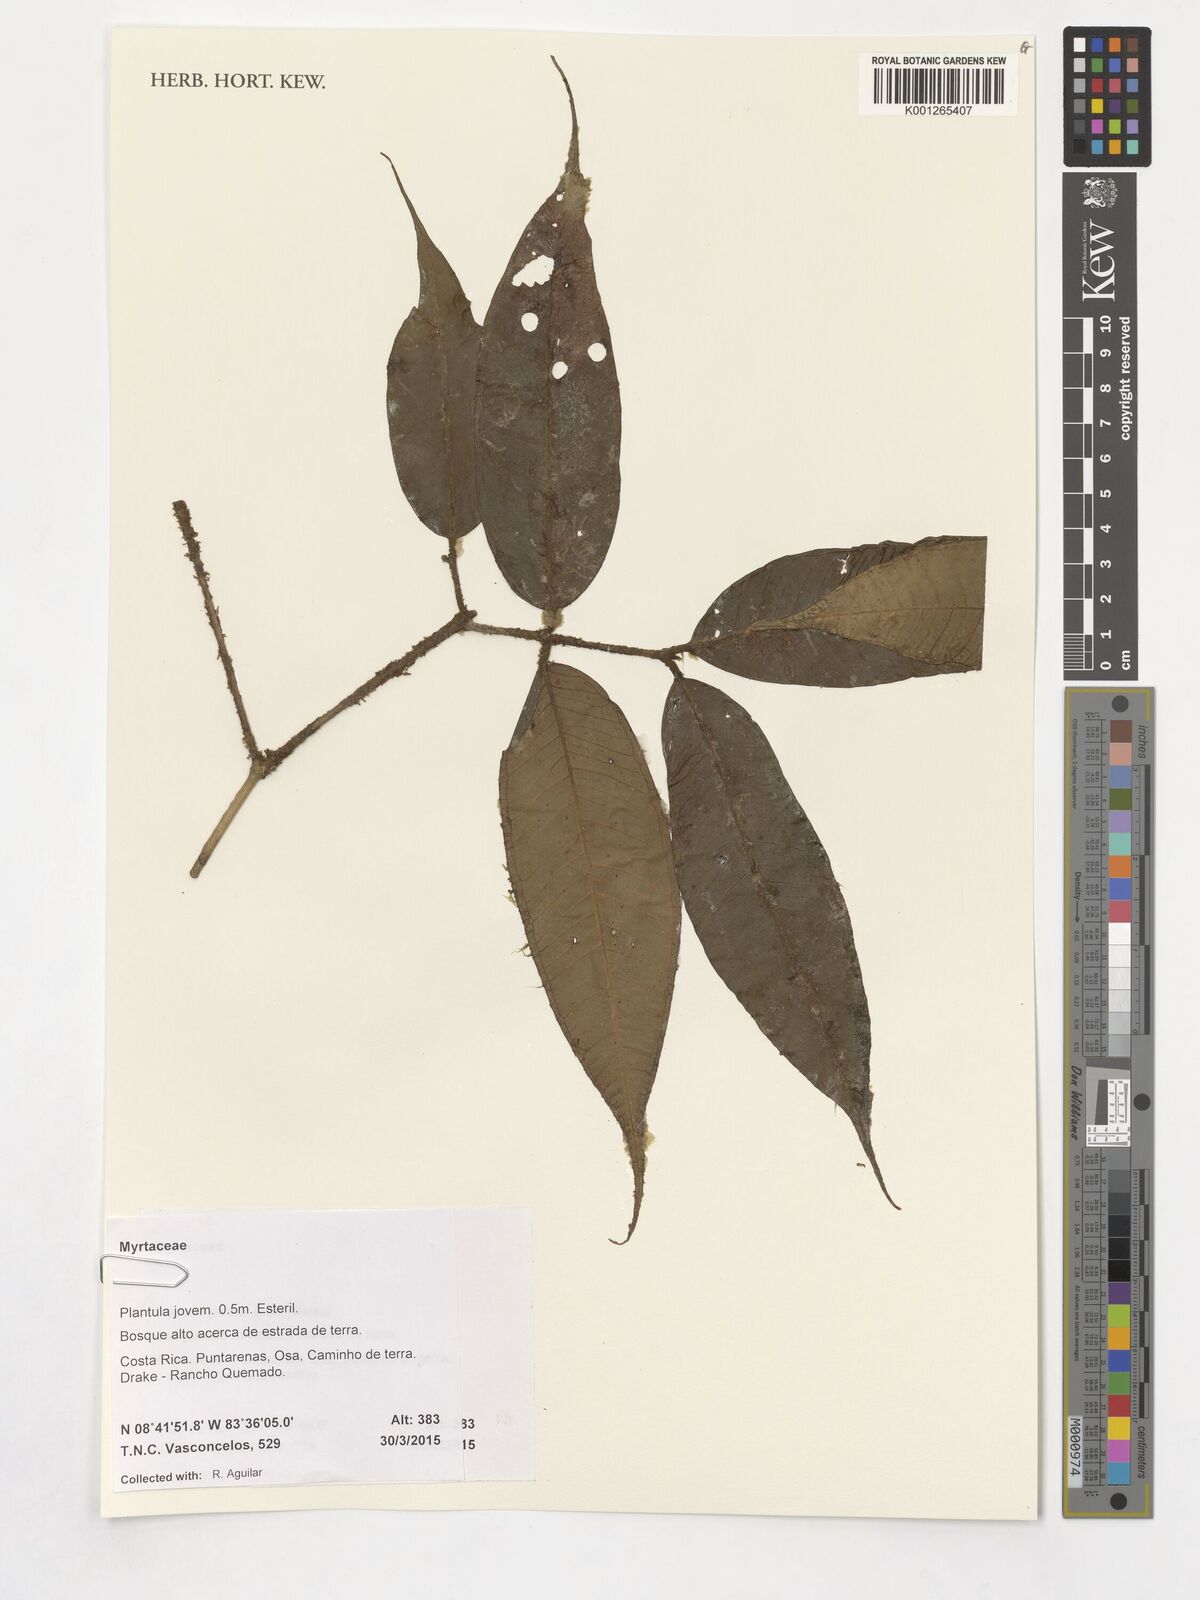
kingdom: Plantae
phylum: Tracheophyta
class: Magnoliopsida
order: Myrtales
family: Myrtaceae
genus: Plinia
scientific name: Plinia
